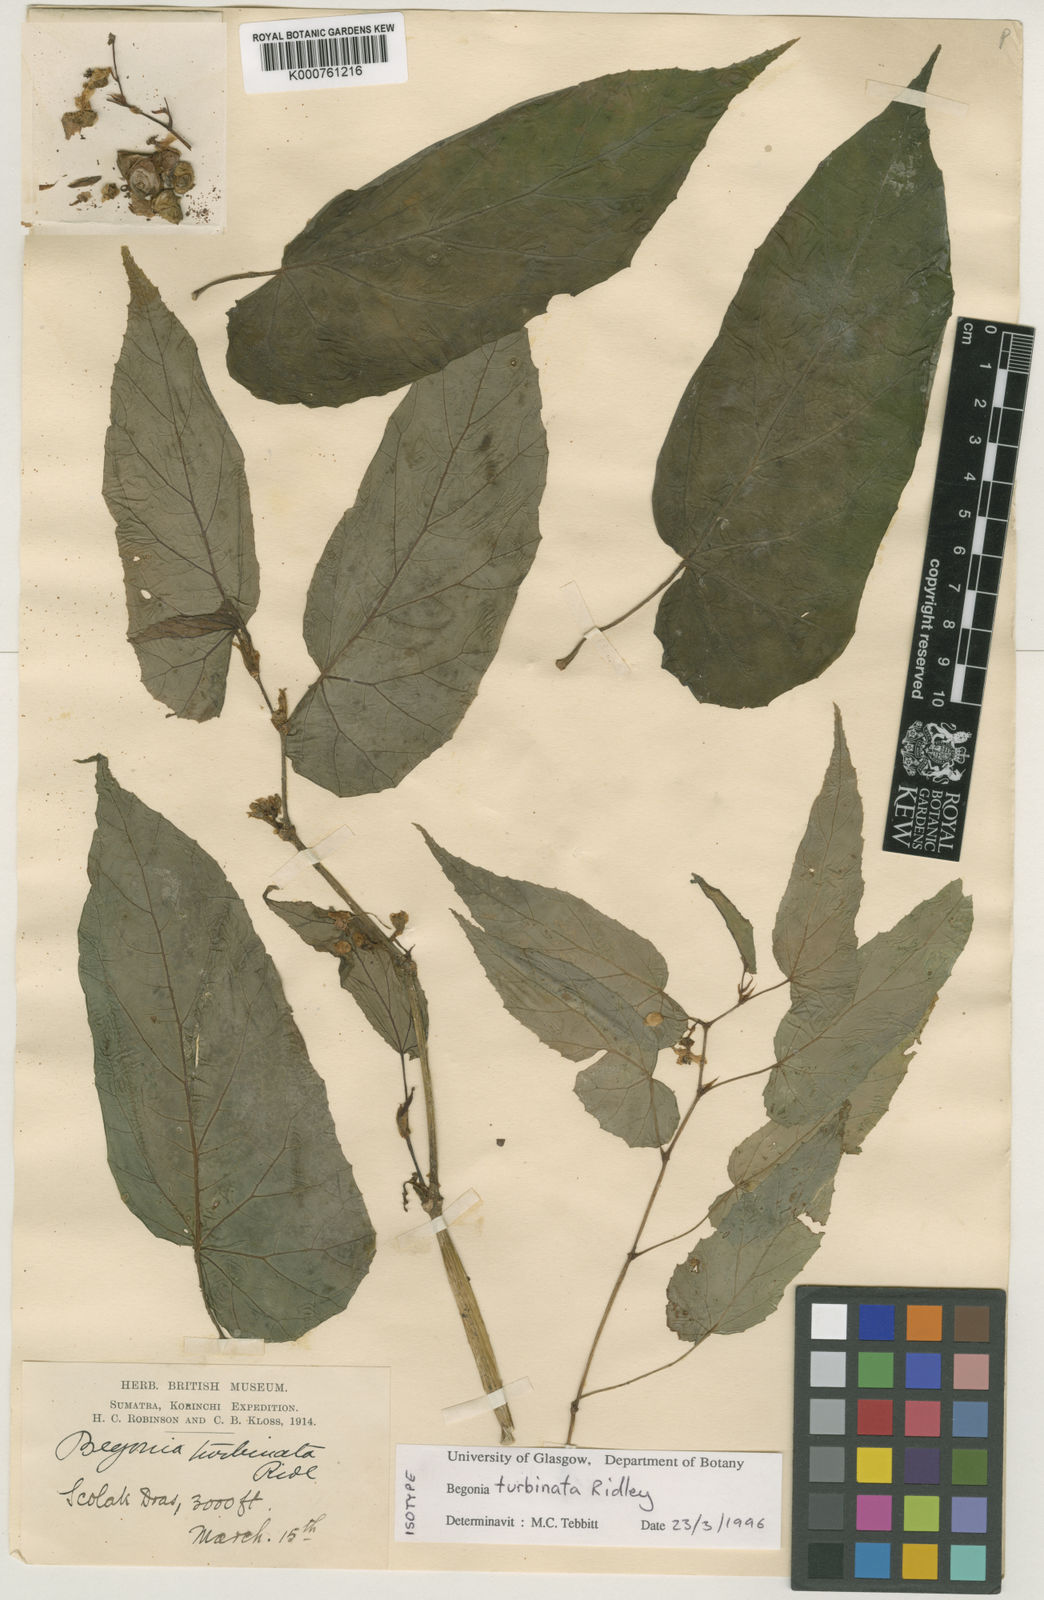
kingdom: Plantae
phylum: Tracheophyta
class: Magnoliopsida
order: Cucurbitales
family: Begoniaceae
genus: Begonia
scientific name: Begonia longifolia
